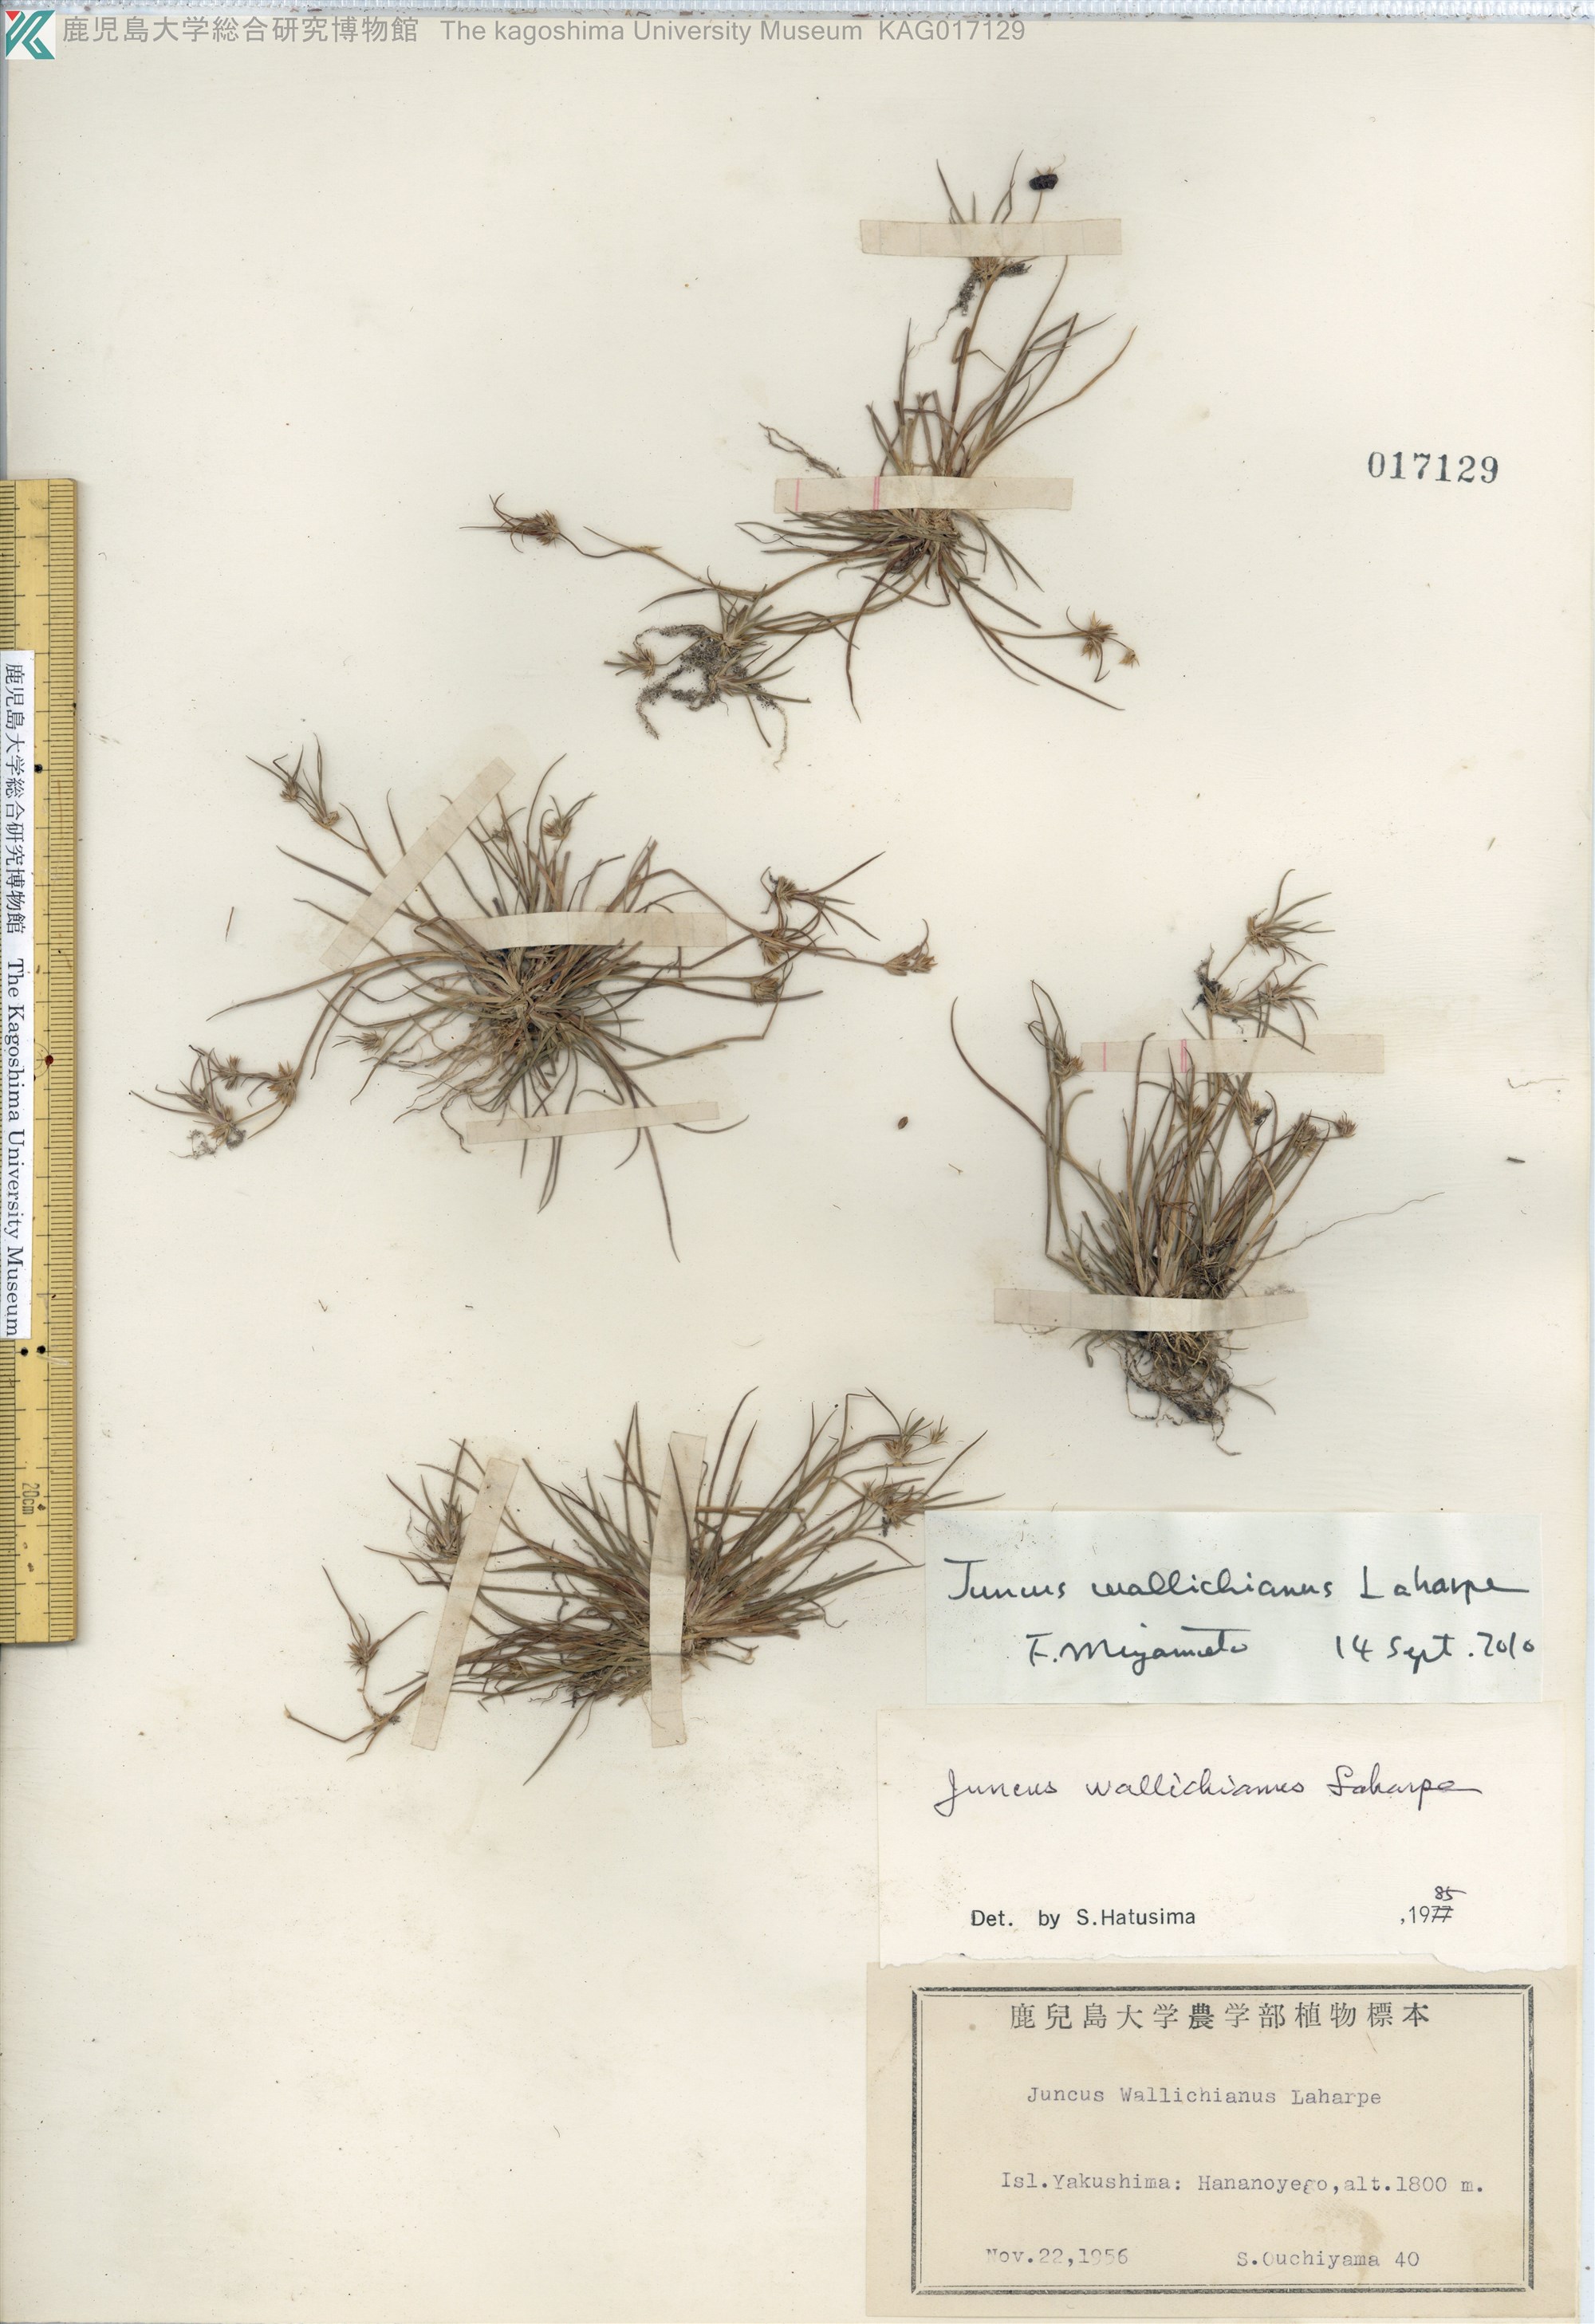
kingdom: Plantae
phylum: Tracheophyta
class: Liliopsida
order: Poales
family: Juncaceae
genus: Juncus
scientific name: Juncus wallichianus
